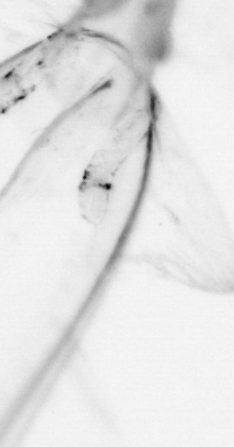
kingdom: Animalia
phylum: Chaetognatha
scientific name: Chaetognatha
